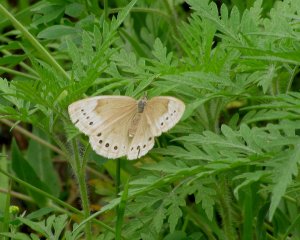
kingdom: Animalia
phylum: Arthropoda
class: Insecta
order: Lepidoptera
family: Nymphalidae
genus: Lethe
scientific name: Lethe eurydice
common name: Eyed Brown
